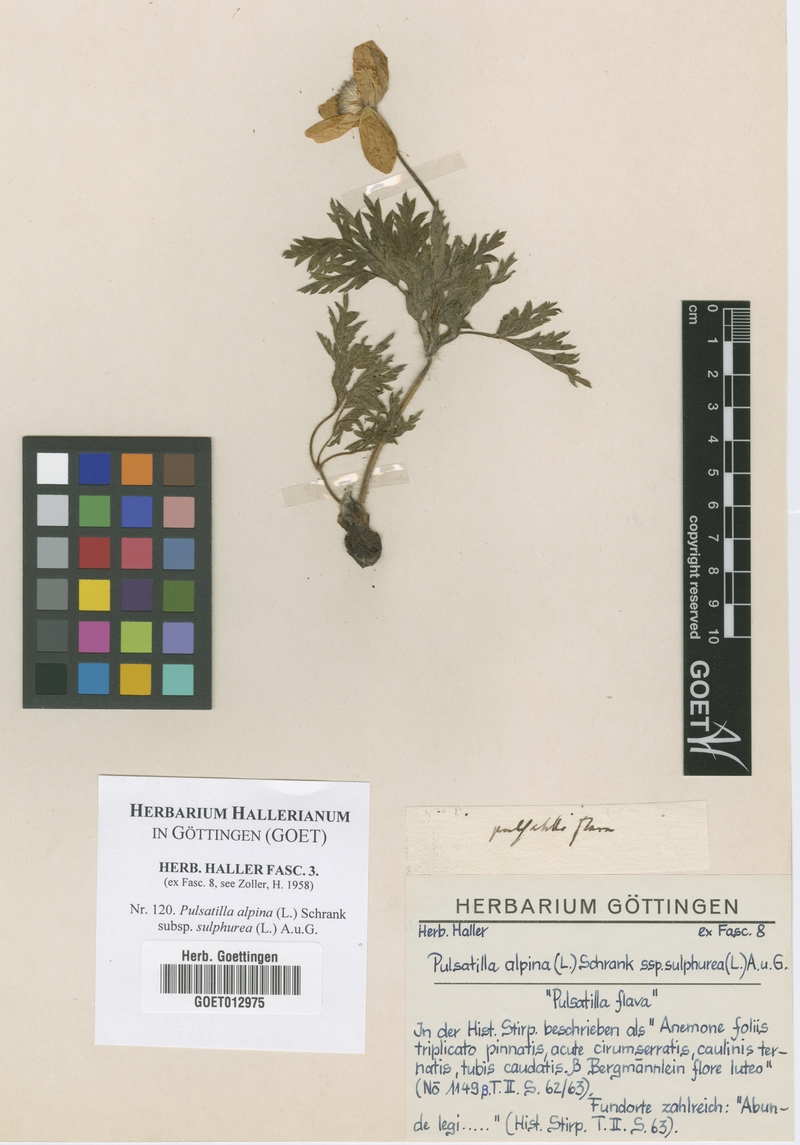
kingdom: Plantae
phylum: Tracheophyta
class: Magnoliopsida
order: Ranunculales
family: Ranunculaceae
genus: Pulsatilla
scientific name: Pulsatilla alpina
